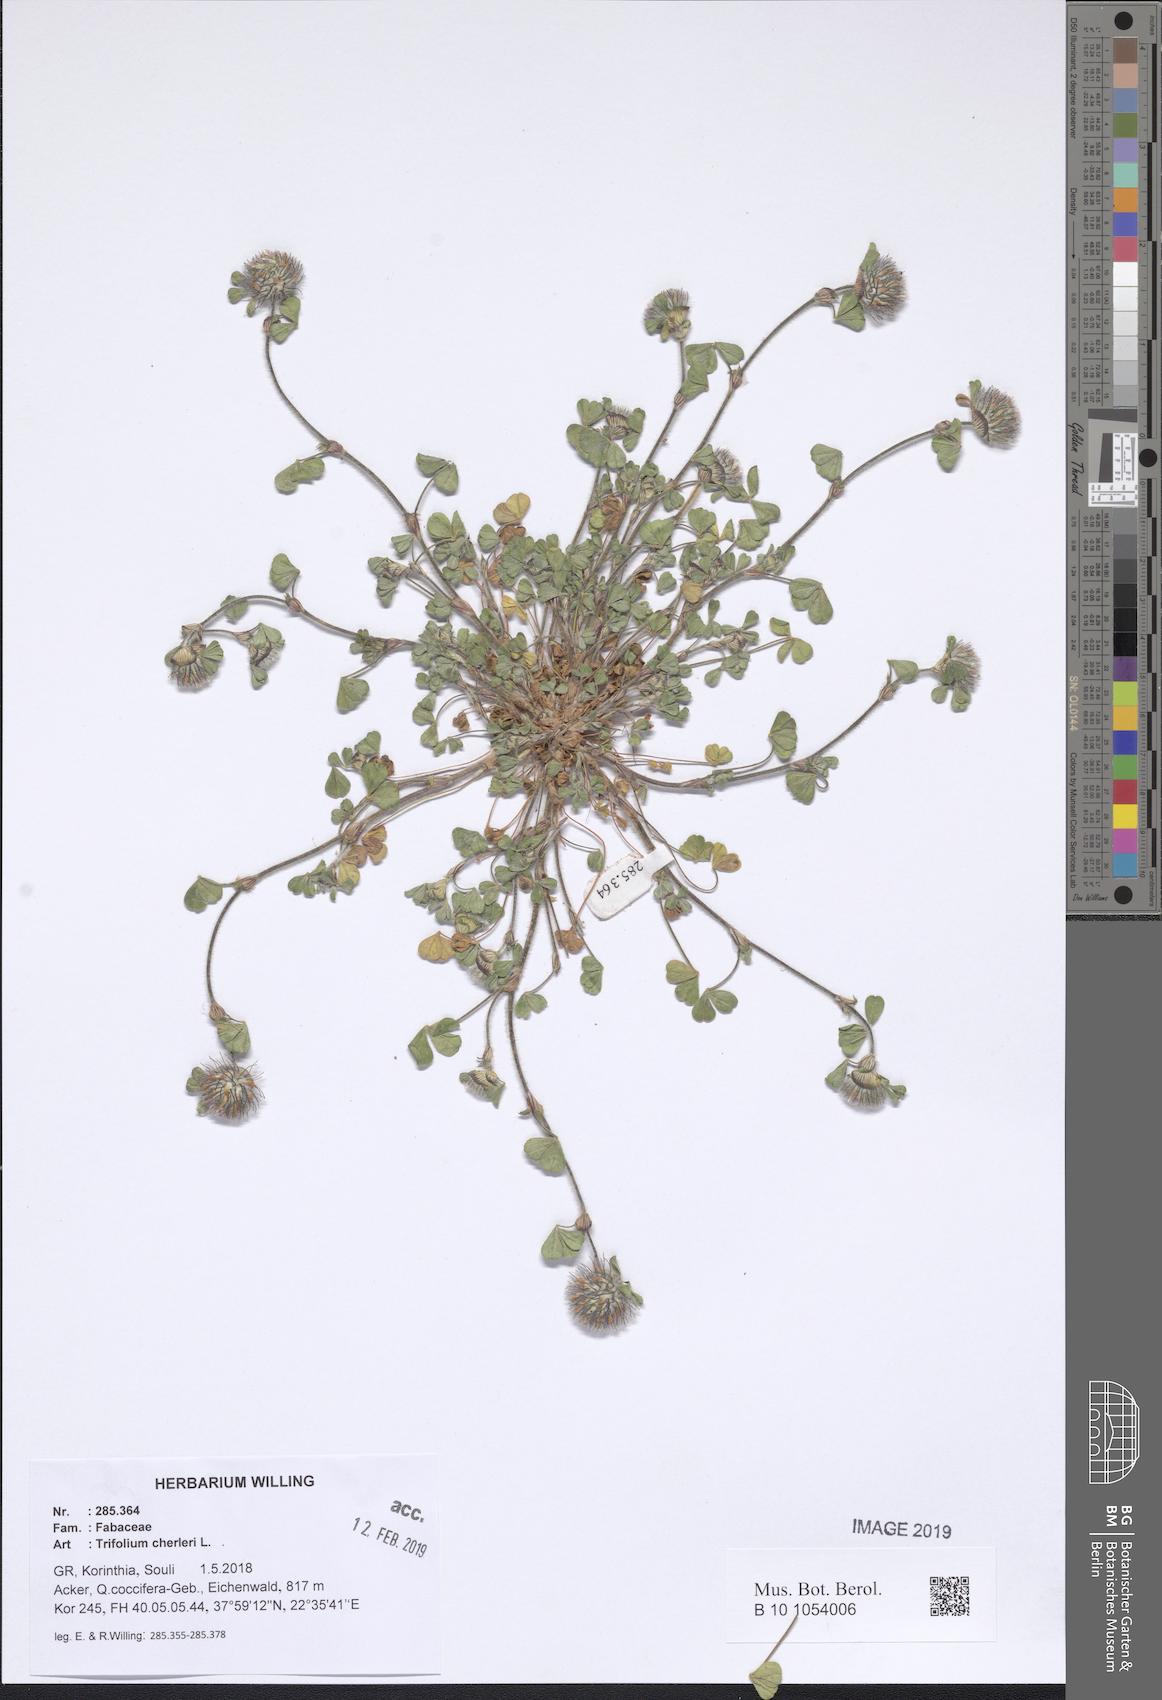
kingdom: Plantae
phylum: Tracheophyta
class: Magnoliopsida
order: Fabales
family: Fabaceae
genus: Trifolium
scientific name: Trifolium cherleri
